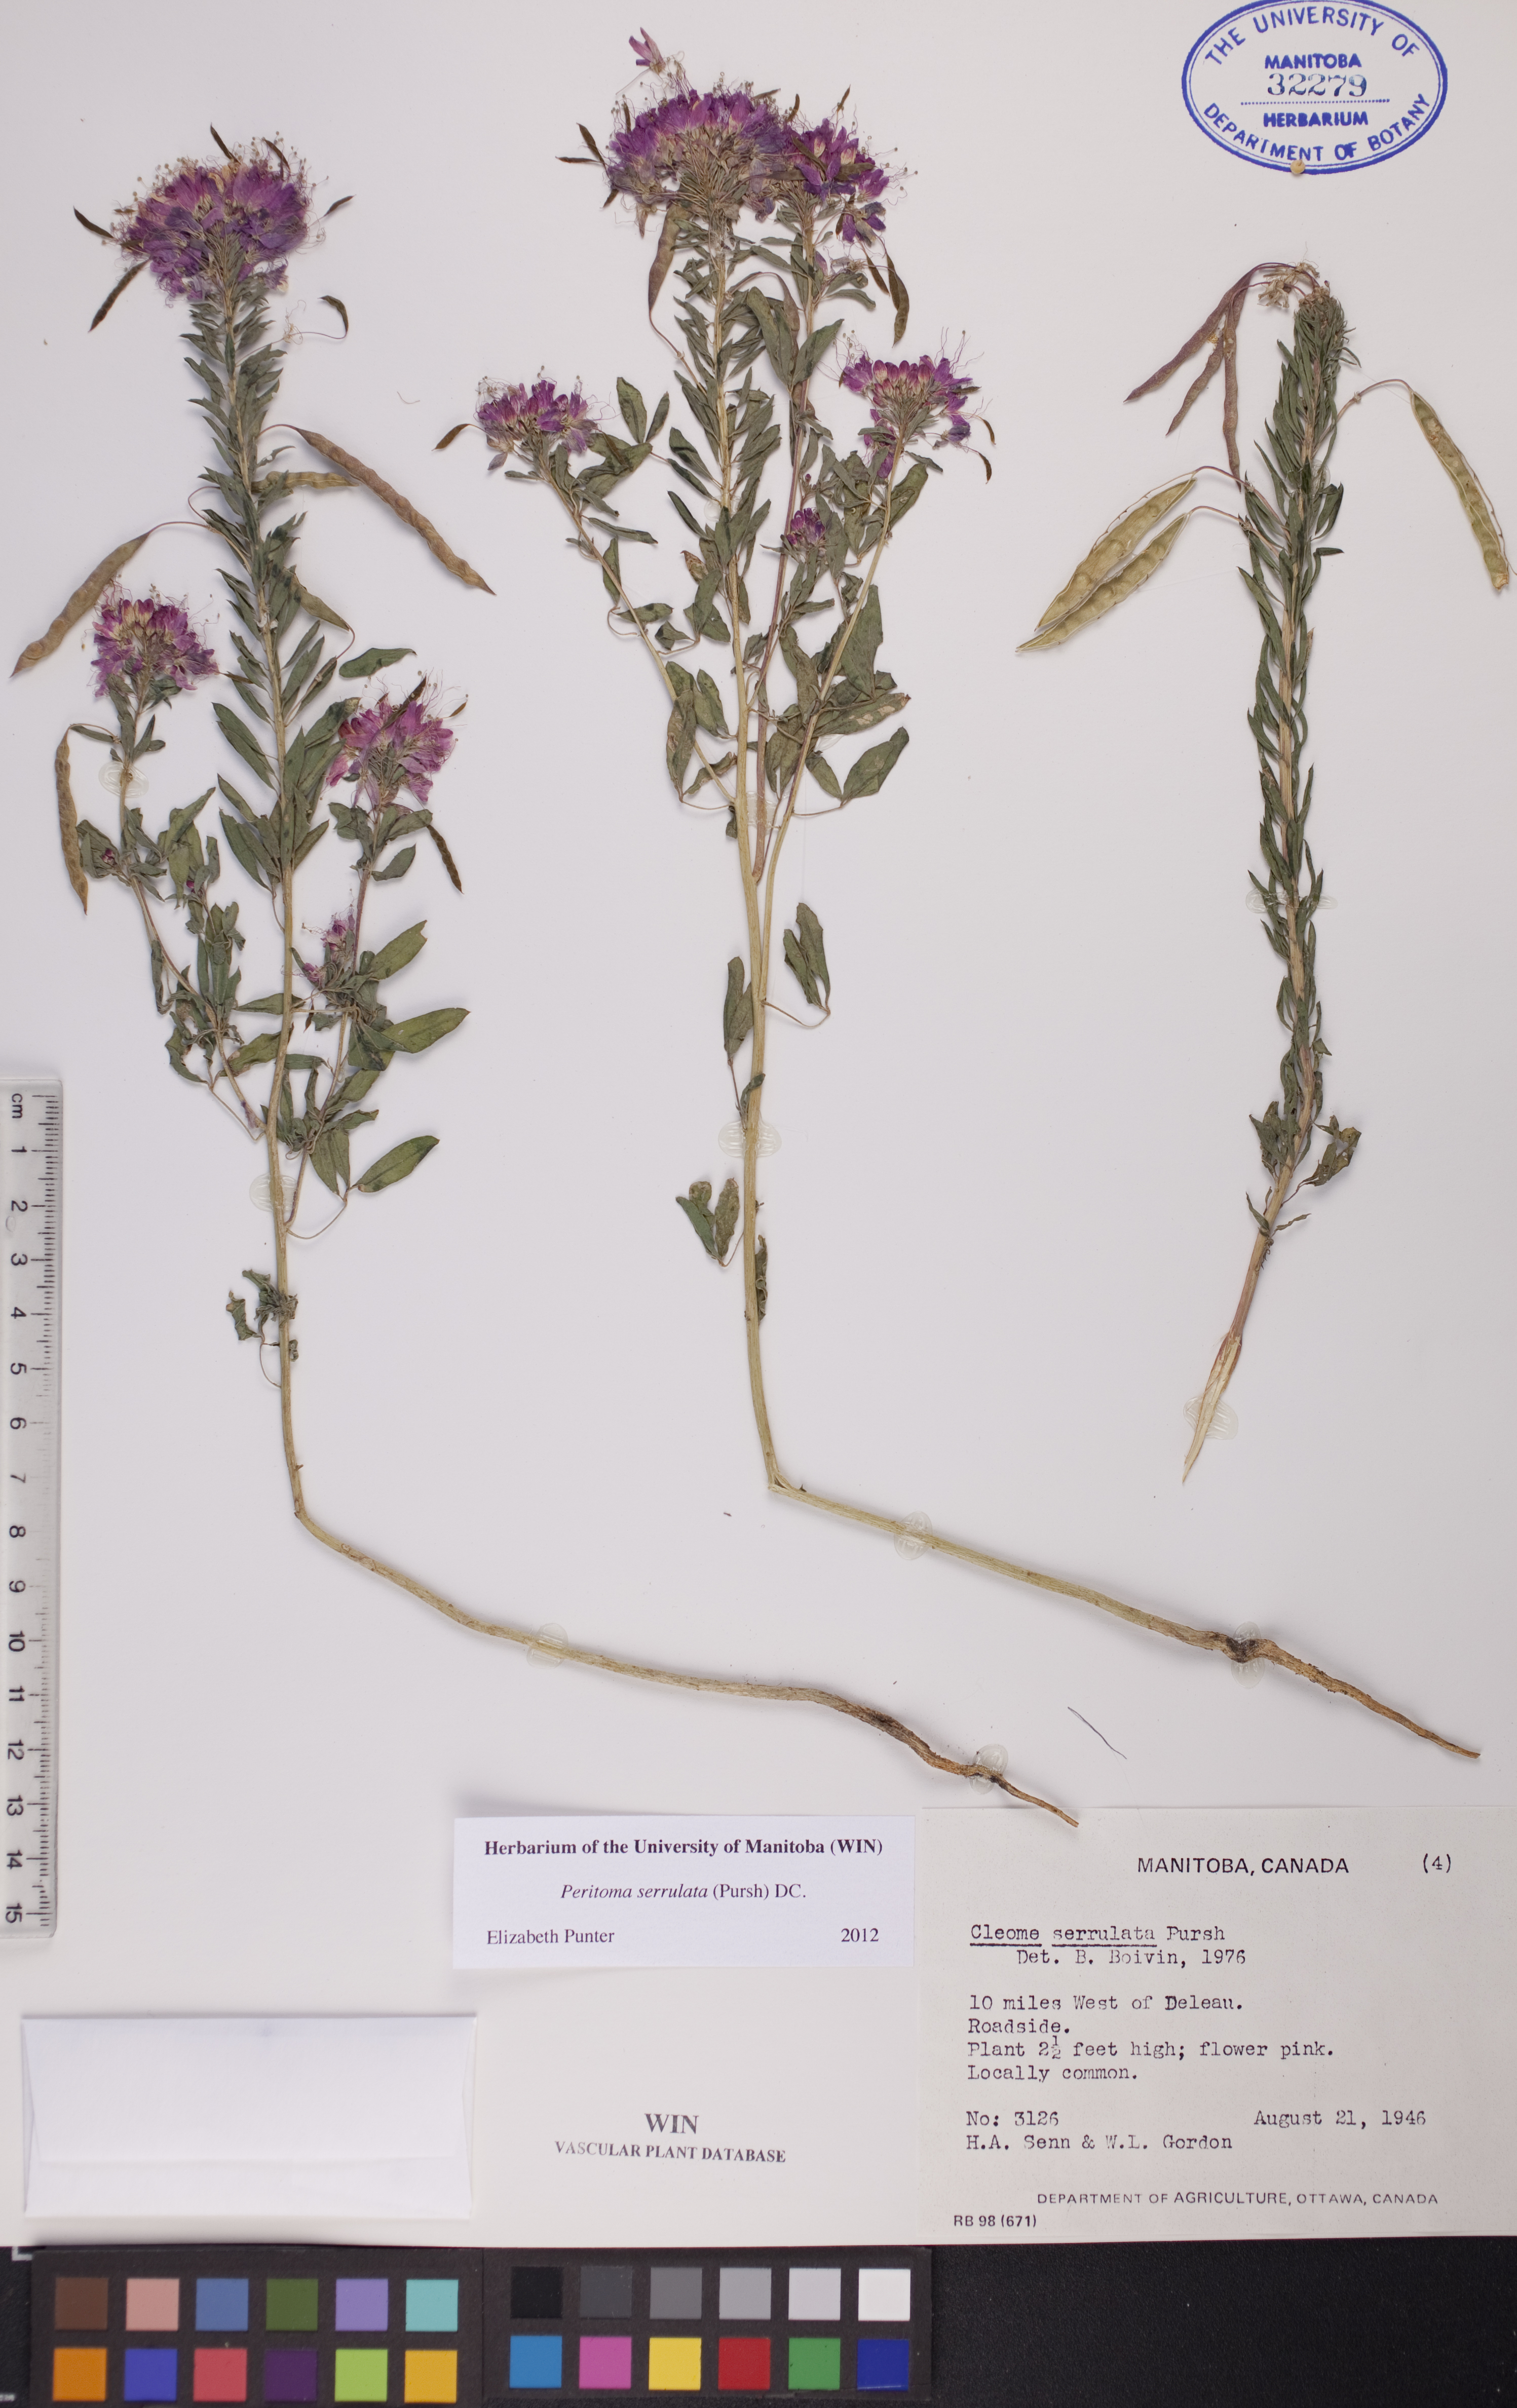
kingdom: Plantae
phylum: Tracheophyta
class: Magnoliopsida
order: Brassicales
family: Cleomaceae
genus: Cleomella
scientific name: Cleomella serrulata
